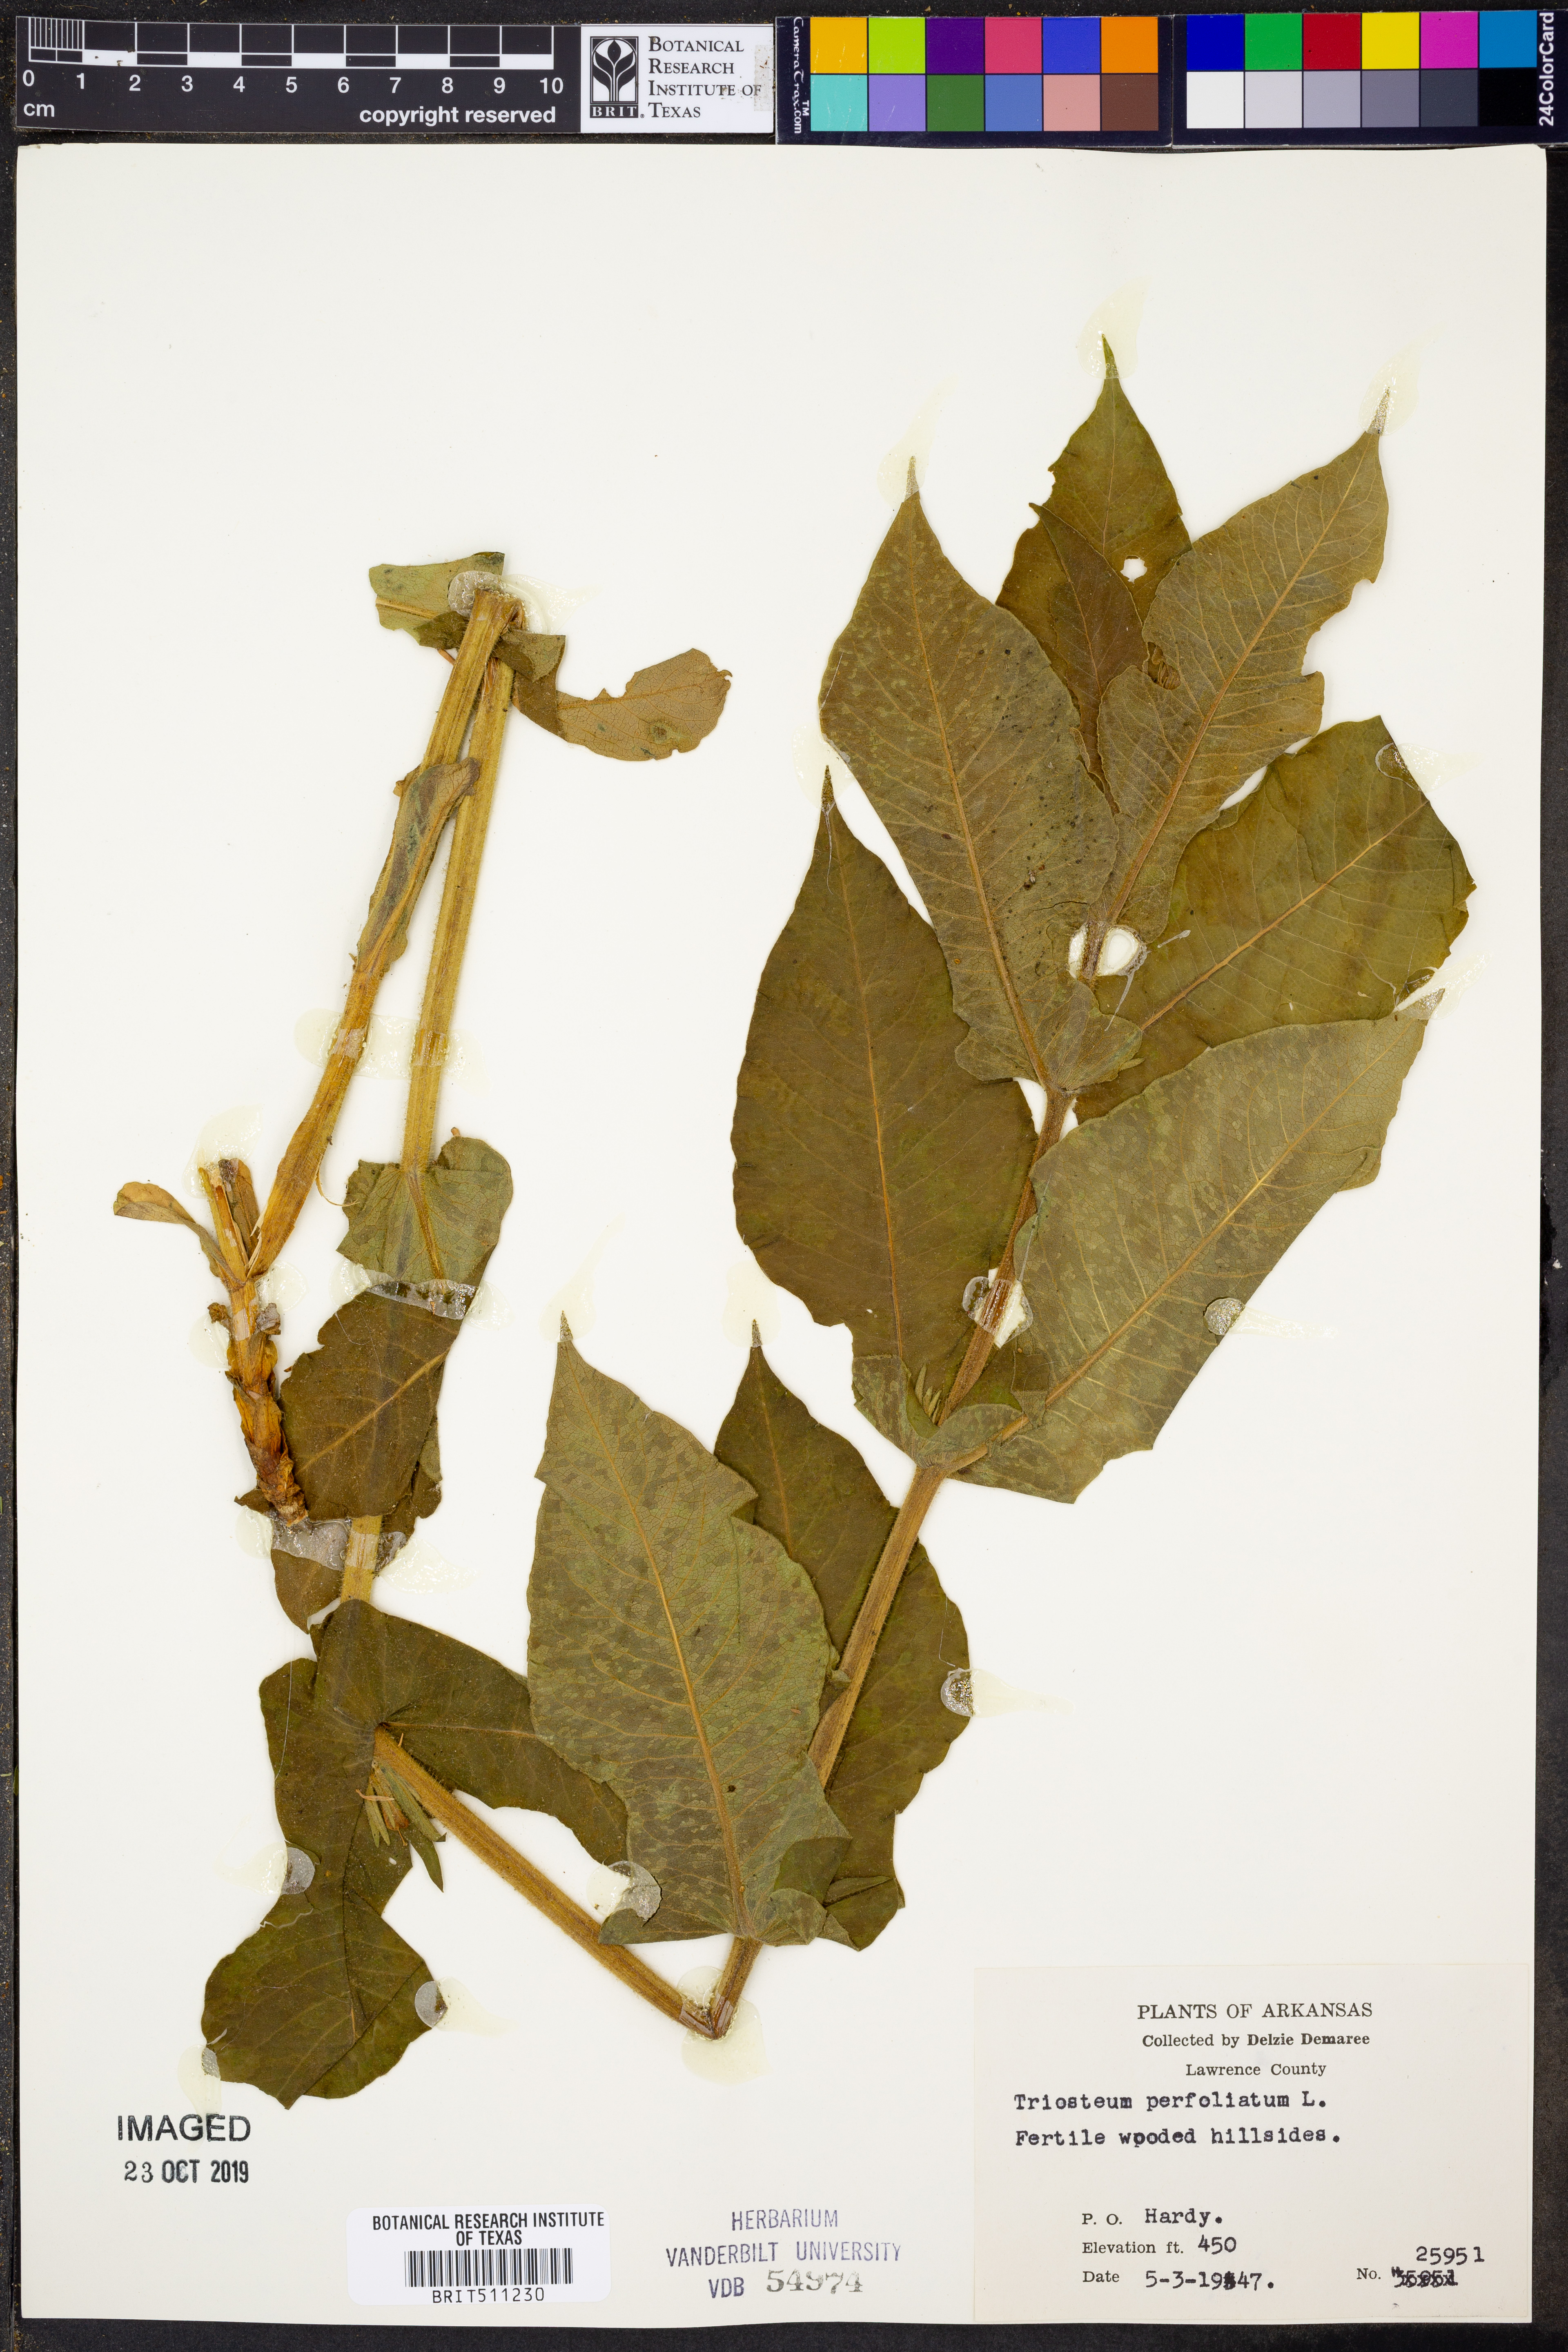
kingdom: Plantae
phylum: Tracheophyta
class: Magnoliopsida
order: Dipsacales
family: Caprifoliaceae
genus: Triosteum
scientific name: Triosteum perfoliatum
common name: Common horse-gentian
